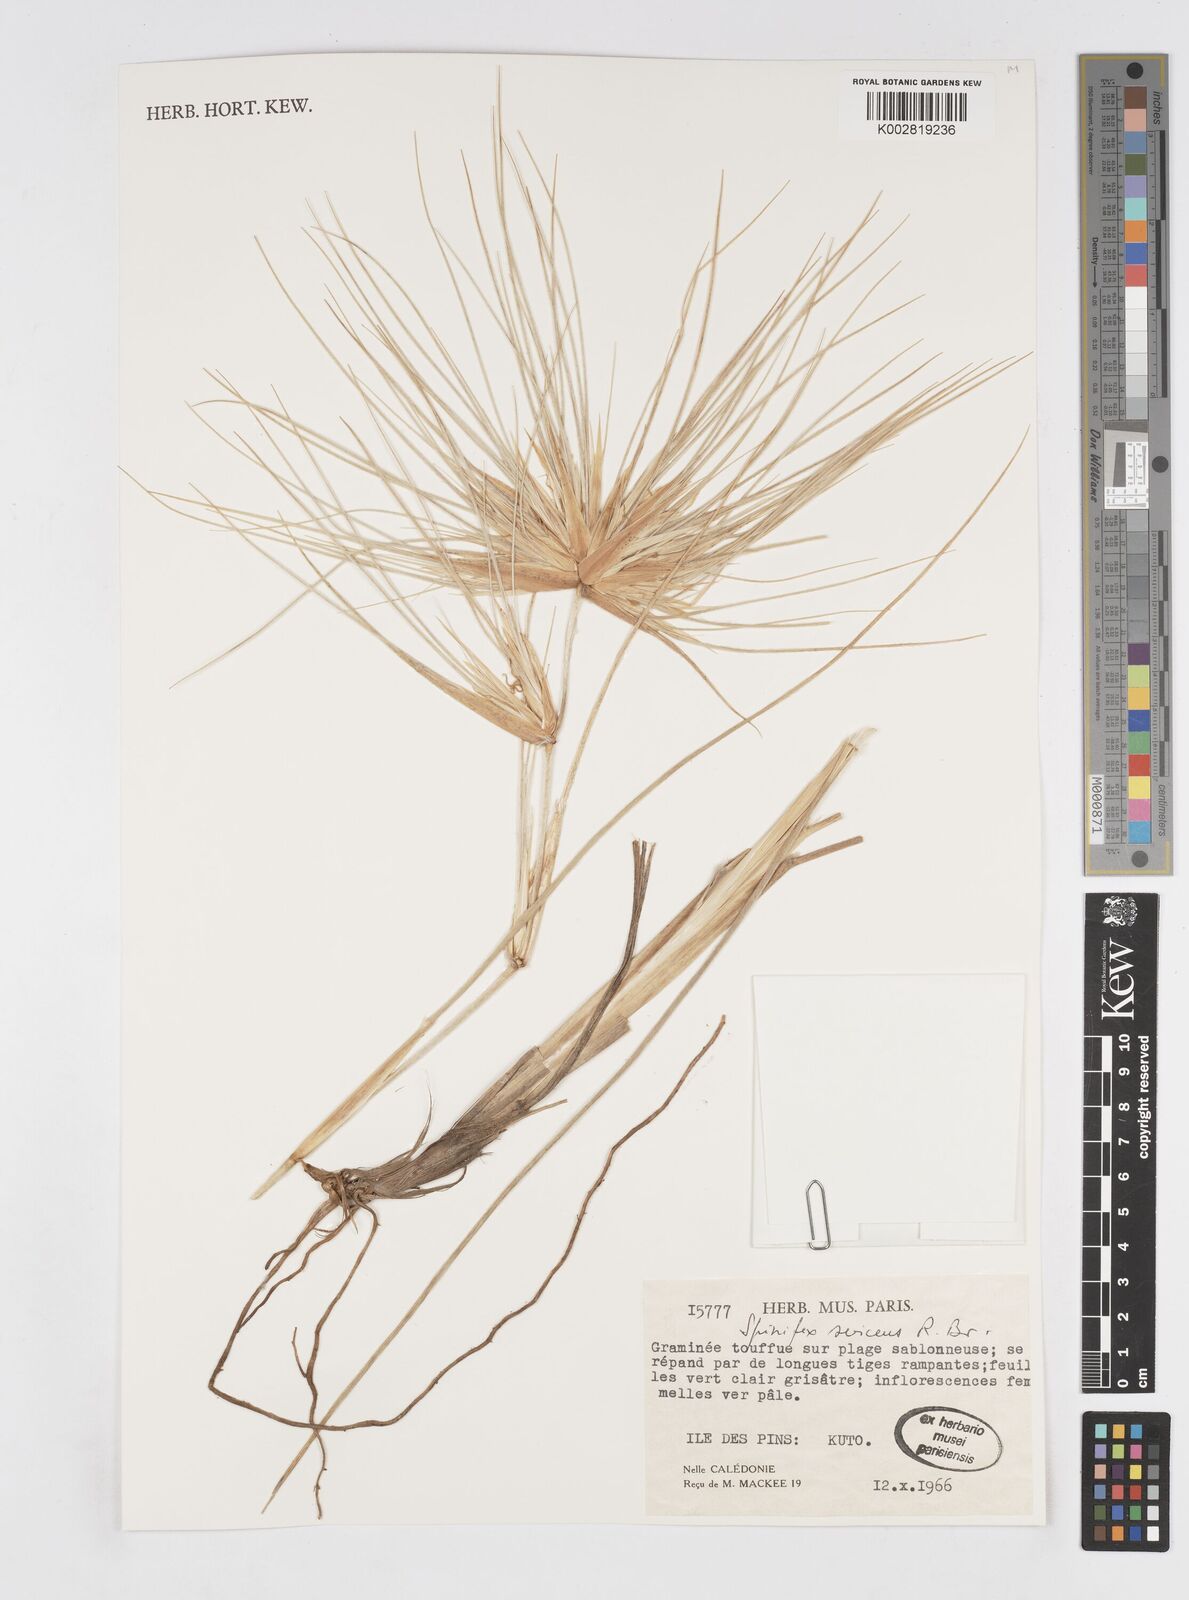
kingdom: Plantae
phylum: Tracheophyta
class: Liliopsida
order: Poales
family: Poaceae
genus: Spinifex
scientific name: Spinifex sericeus
